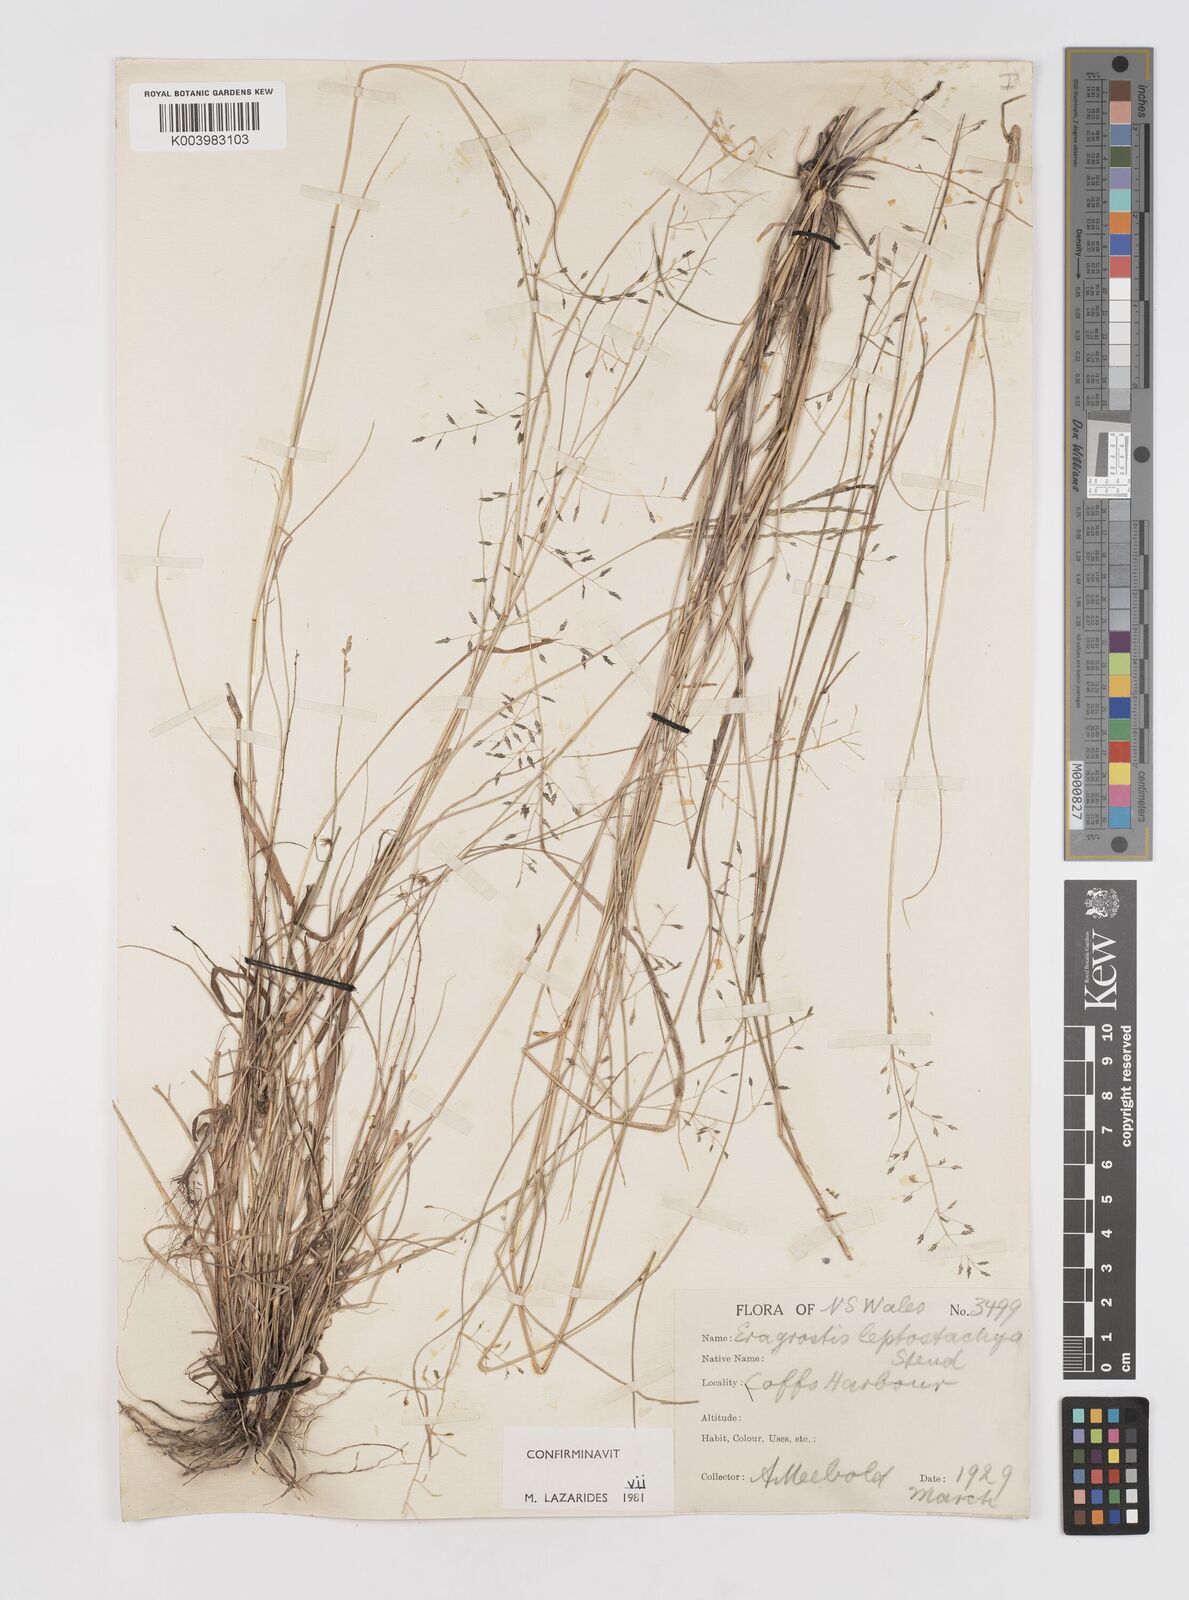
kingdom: Plantae
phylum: Tracheophyta
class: Liliopsida
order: Poales
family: Poaceae
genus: Eragrostis
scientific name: Eragrostis leptostachya
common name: Australian lovegrass
